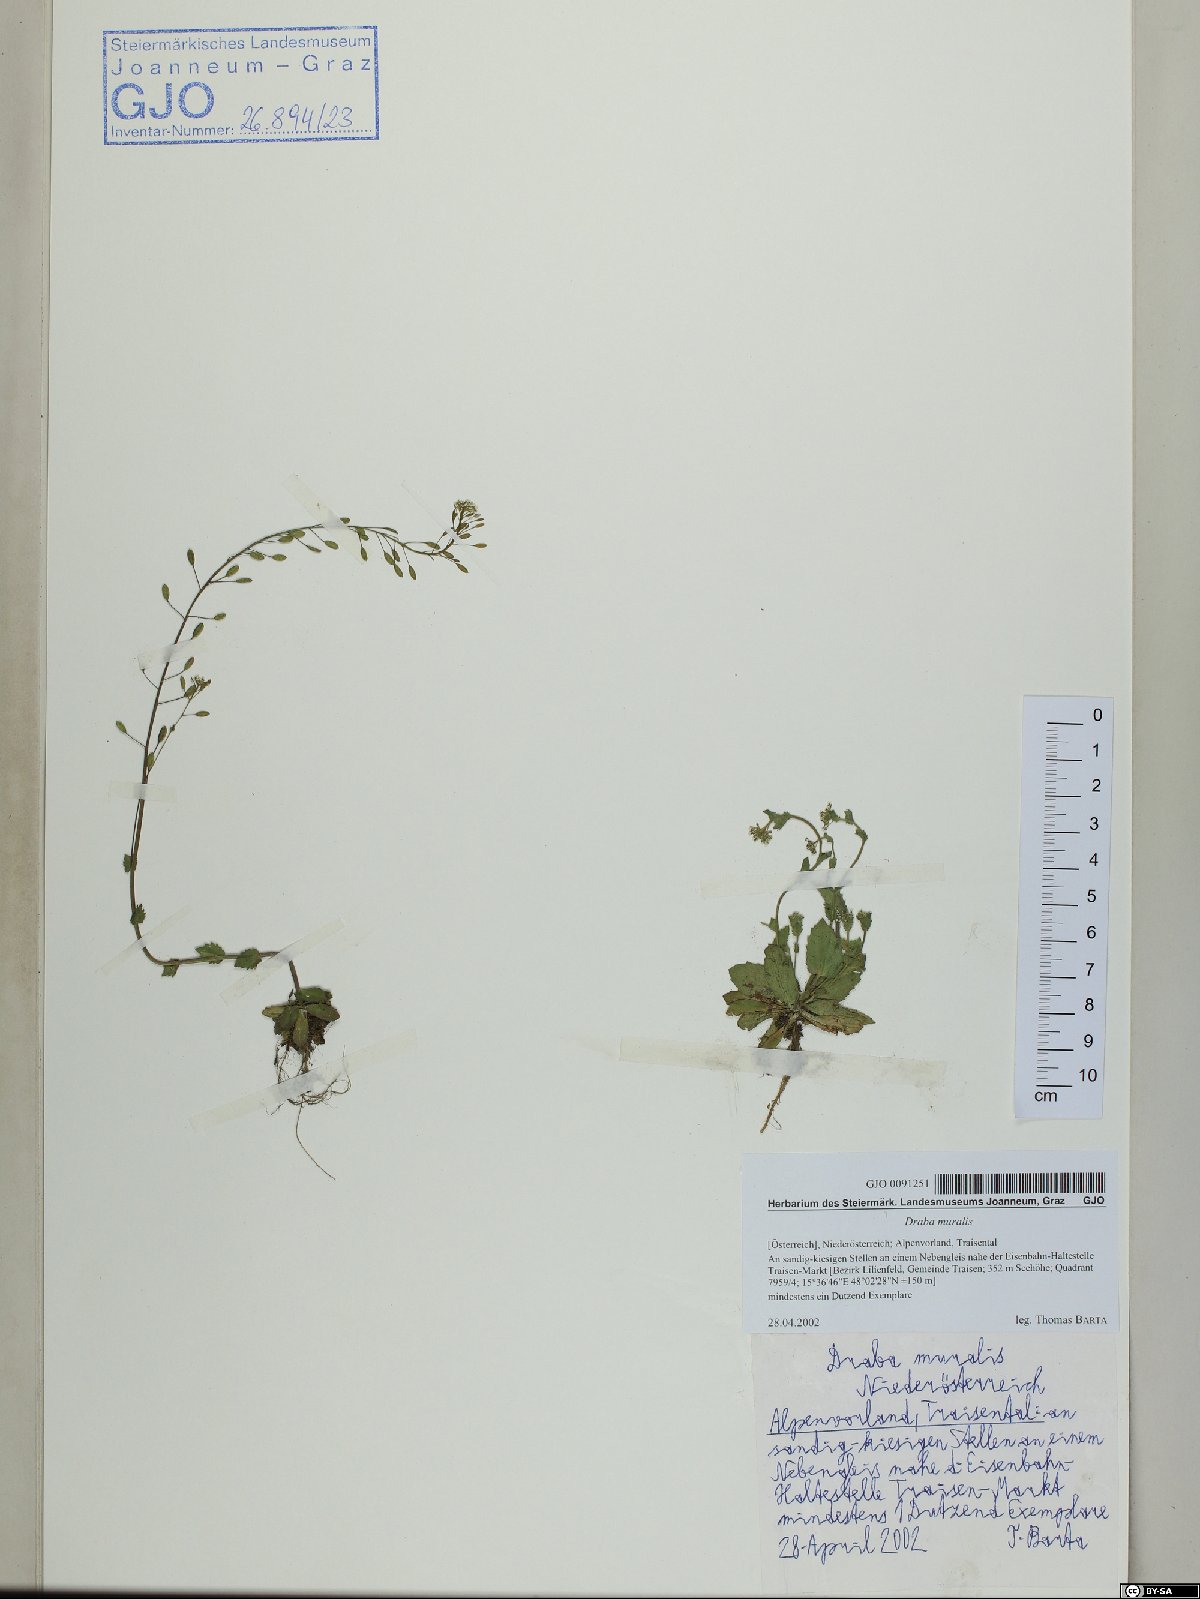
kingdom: Plantae
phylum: Tracheophyta
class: Magnoliopsida
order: Brassicales
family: Brassicaceae
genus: Drabella
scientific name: Drabella muralis
